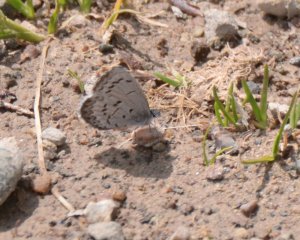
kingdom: Animalia
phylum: Arthropoda
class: Insecta
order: Lepidoptera
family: Lycaenidae
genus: Celastrina
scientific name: Celastrina lucia
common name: Northern Spring Azure
